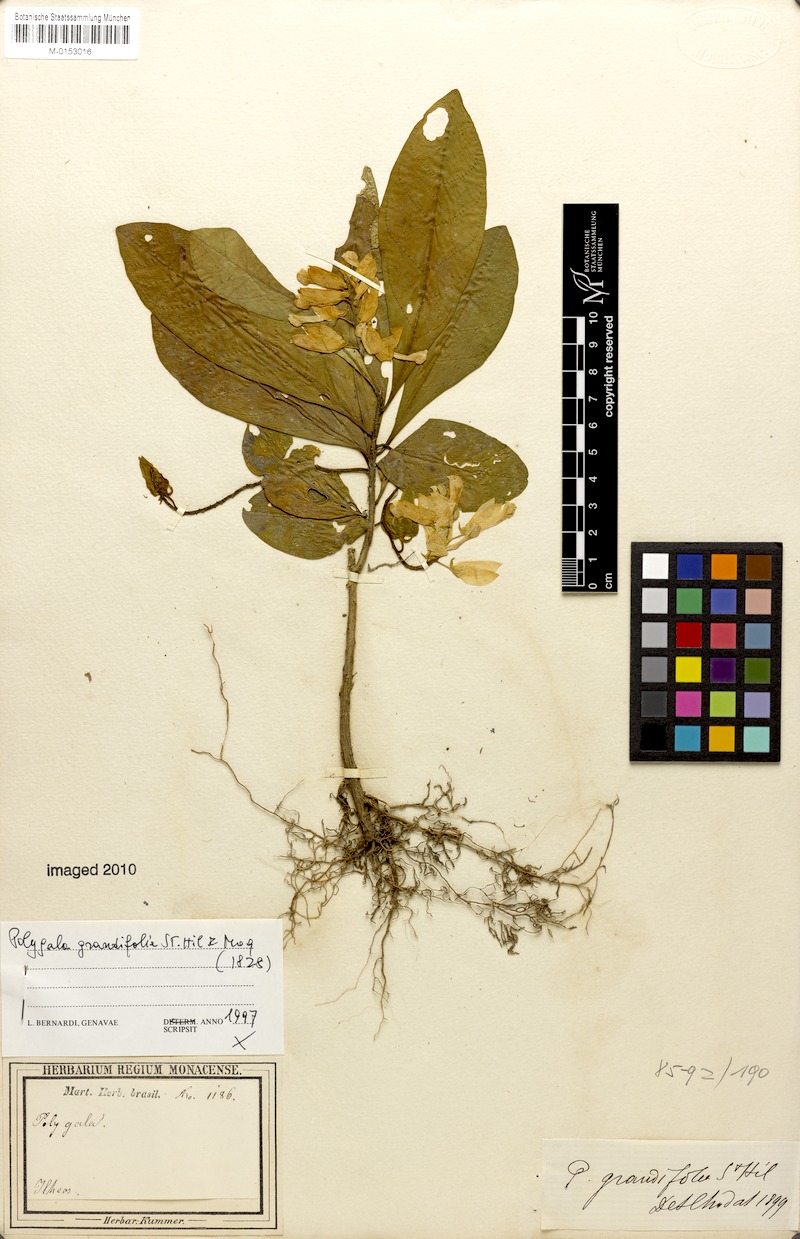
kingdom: Plantae
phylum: Tracheophyta
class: Magnoliopsida
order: Fabales
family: Polygalaceae
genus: Caamembeca
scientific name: Caamembeca grandifolia
